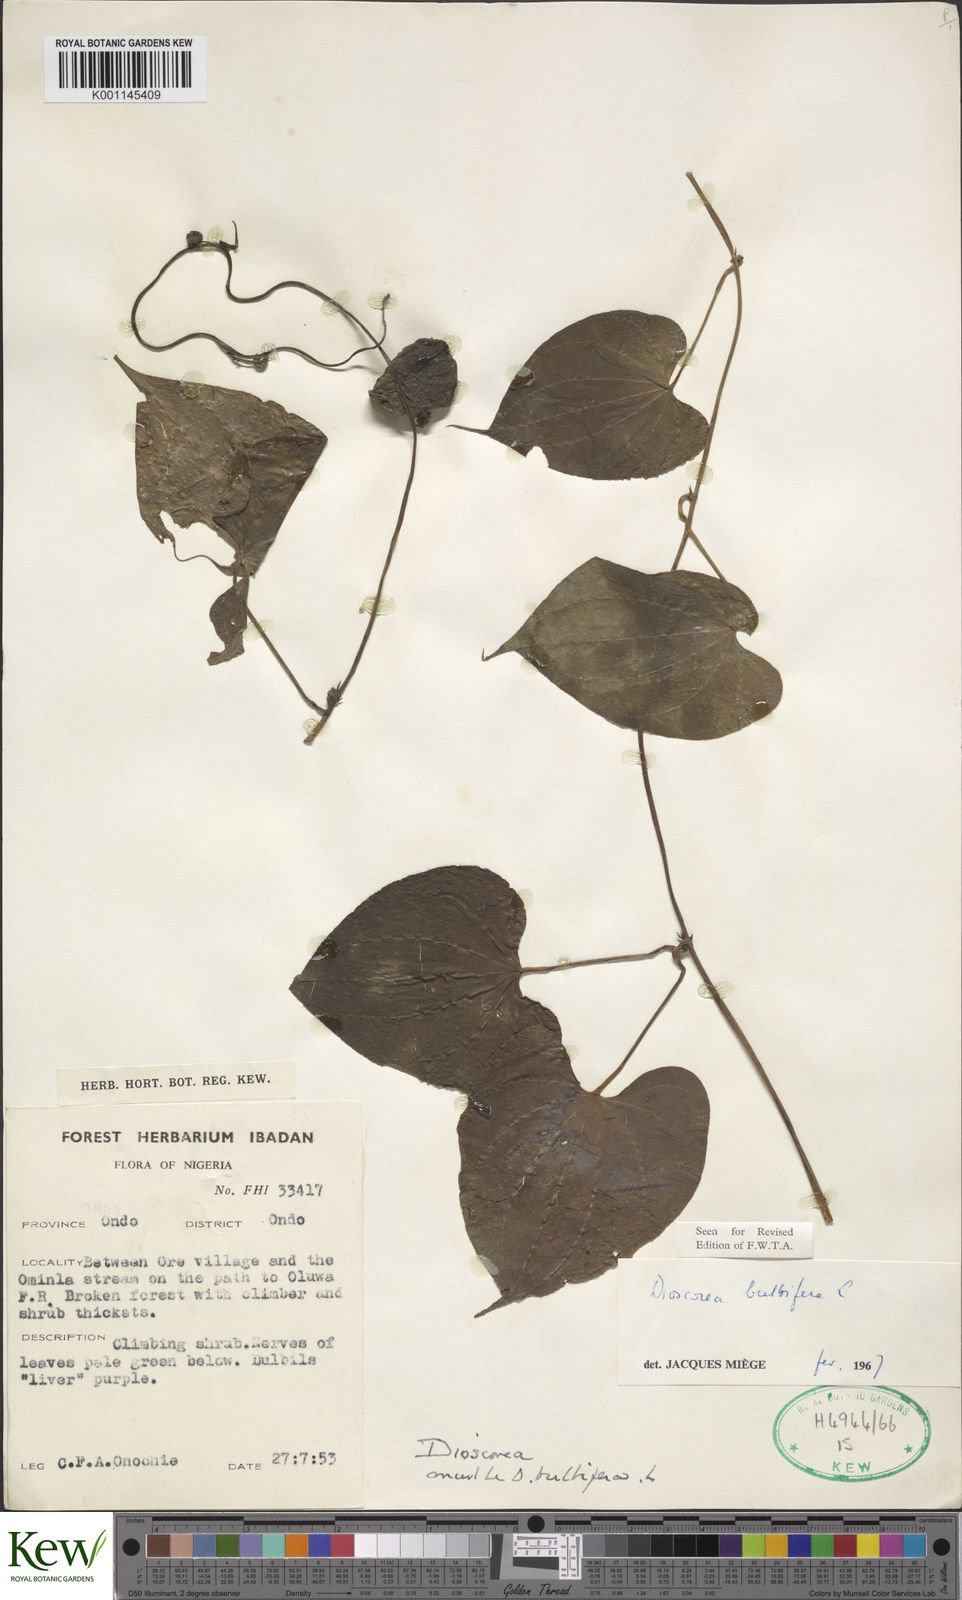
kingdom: Plantae
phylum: Tracheophyta
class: Liliopsida
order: Dioscoreales
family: Dioscoreaceae
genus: Dioscorea
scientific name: Dioscorea bulbifera
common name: Air yam
